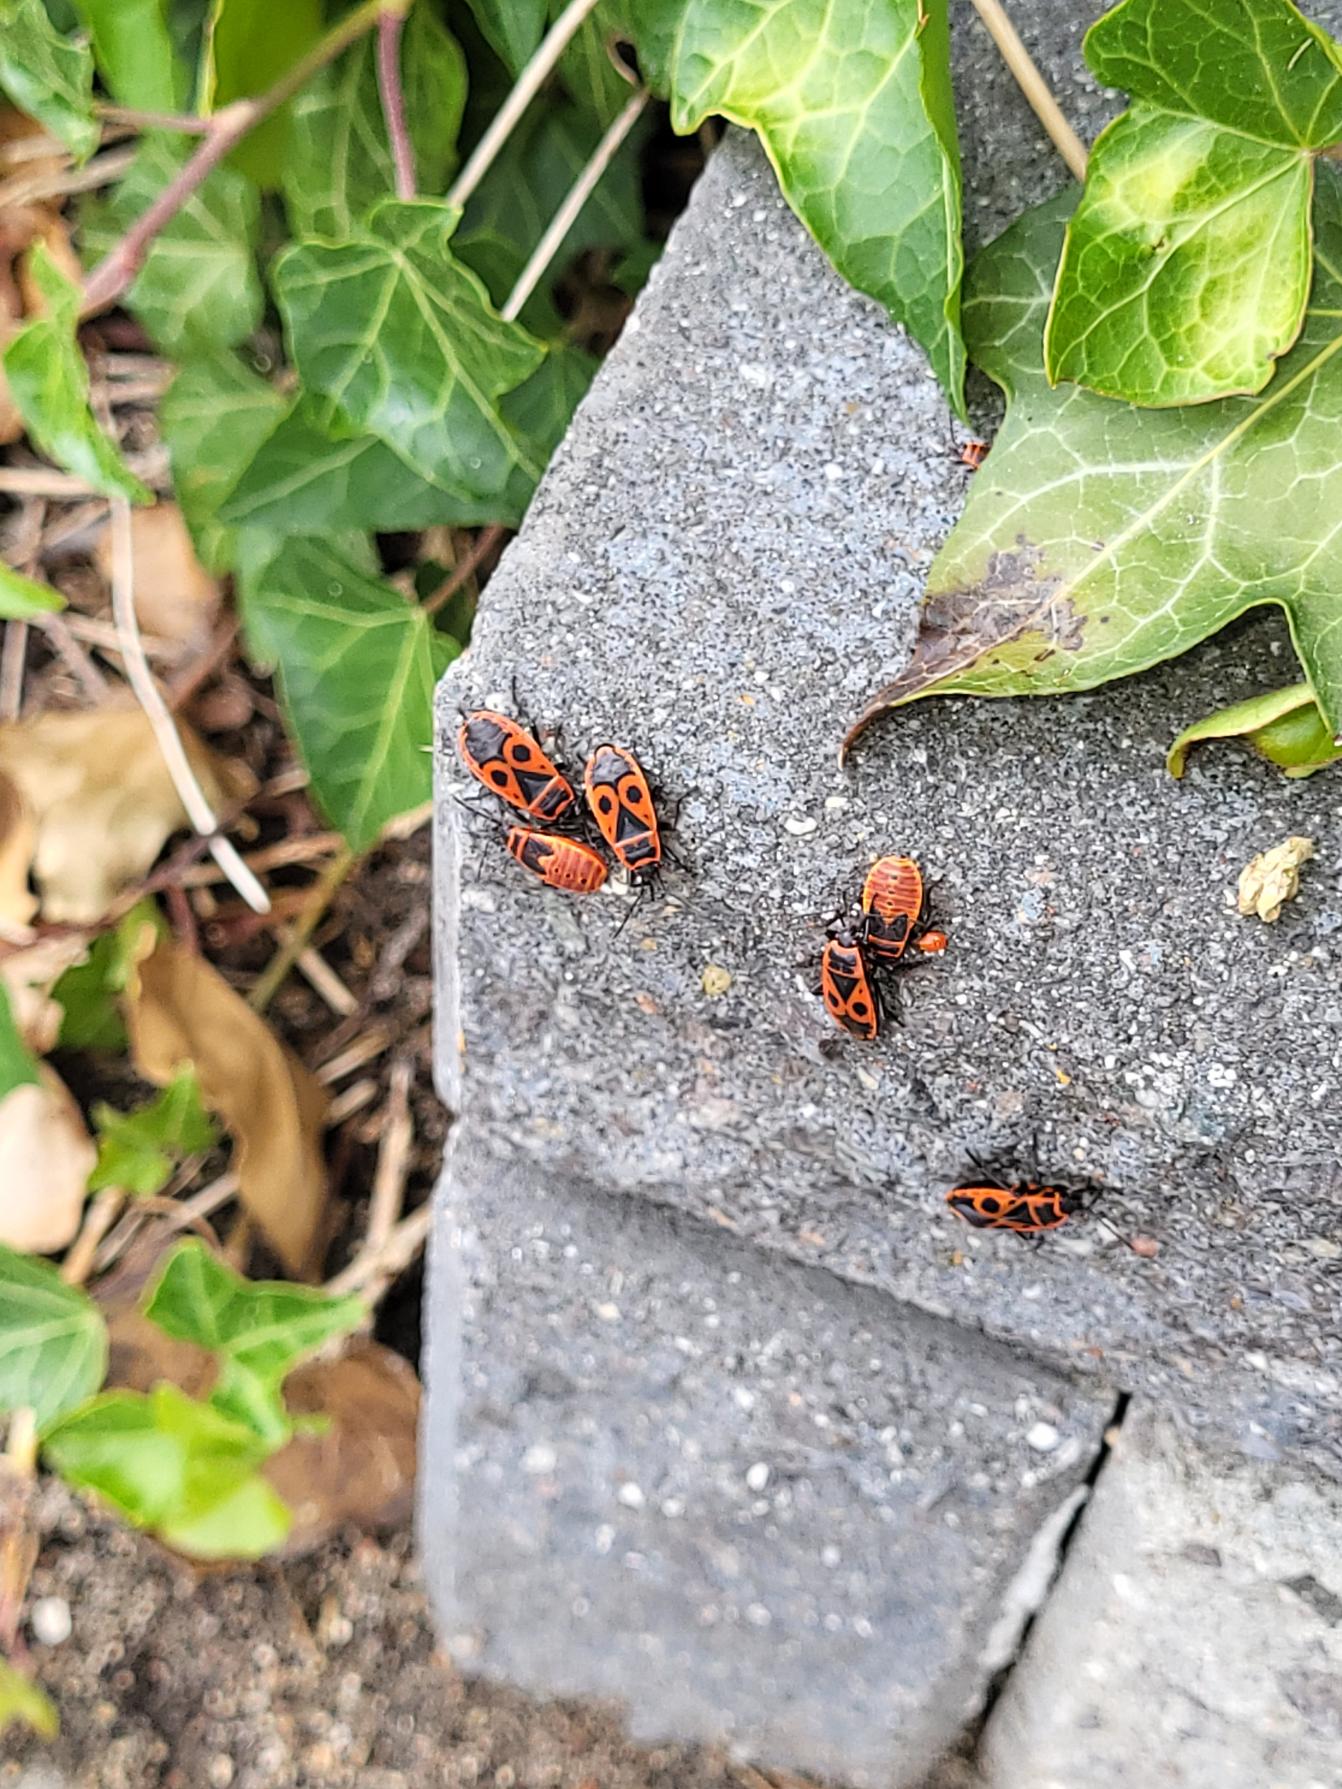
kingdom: Animalia
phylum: Arthropoda
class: Insecta
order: Hemiptera
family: Pyrrhocoridae
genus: Pyrrhocoris
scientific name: Pyrrhocoris apterus
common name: Ildtæge
